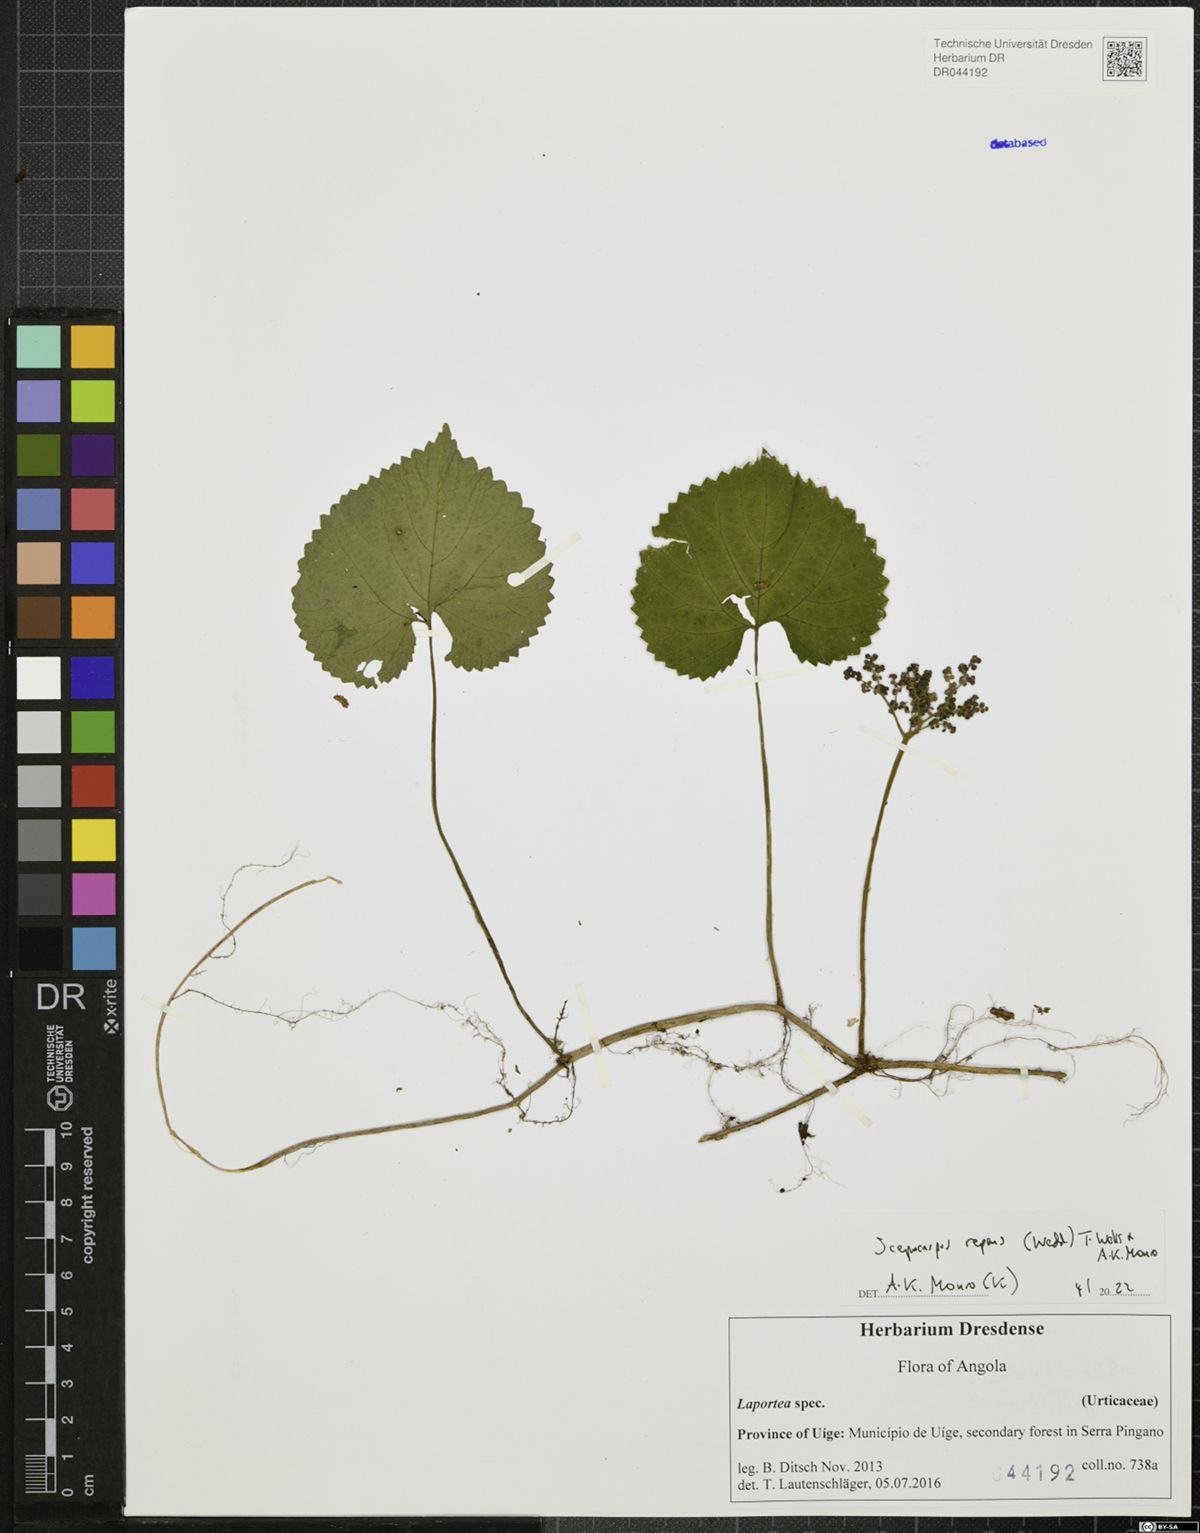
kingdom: Plantae
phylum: Tracheophyta
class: Magnoliopsida
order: Rosales
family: Urticaceae
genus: Scepocarpus
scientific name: Scepocarpus repens
